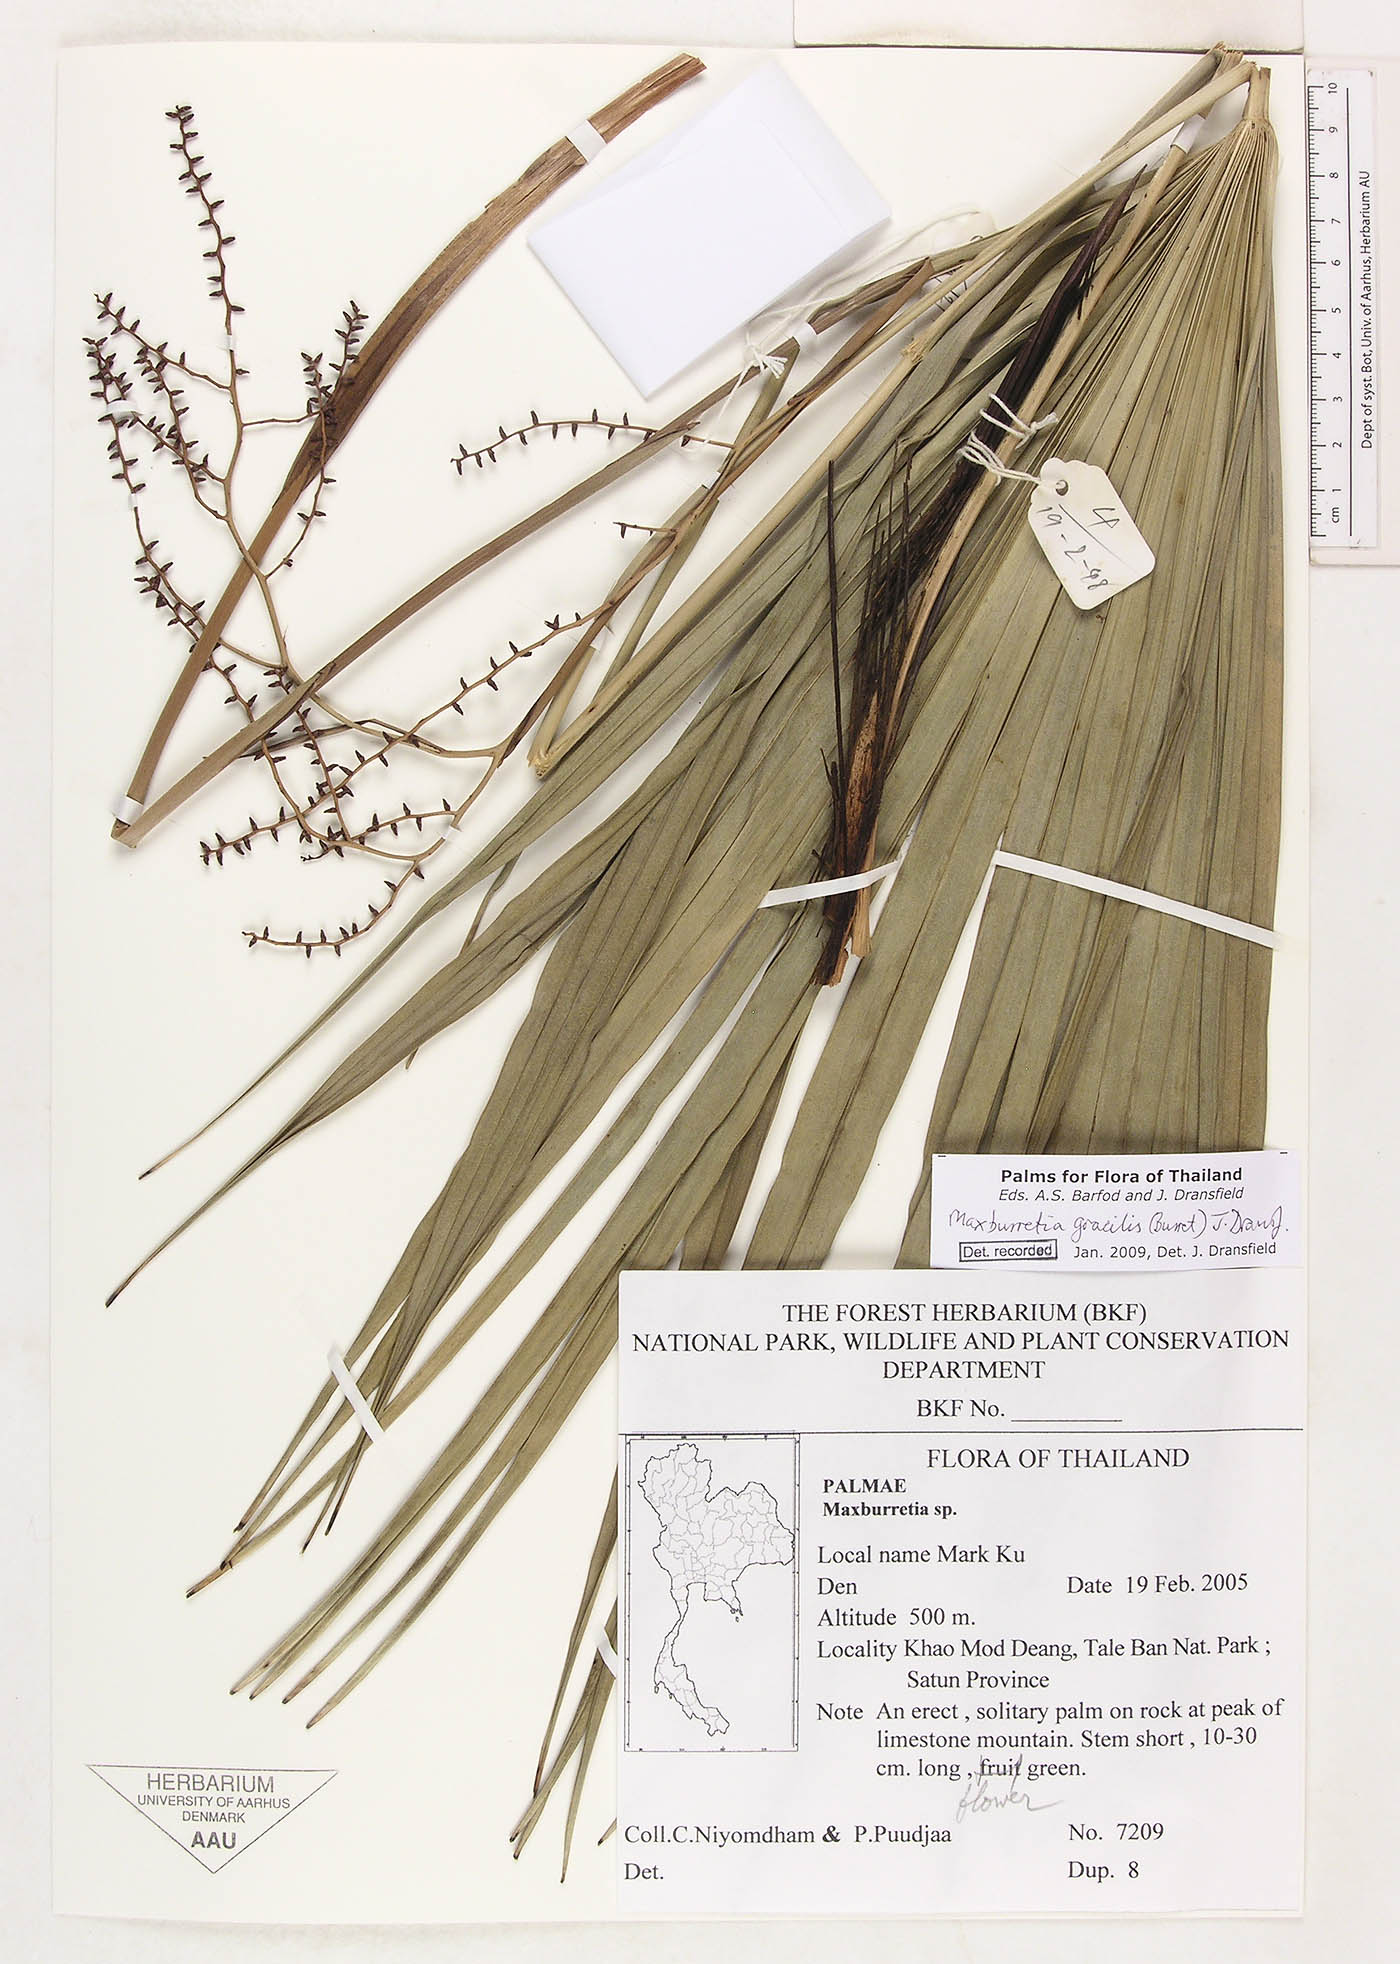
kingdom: Plantae
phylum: Tracheophyta
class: Liliopsida
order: Arecales
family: Arecaceae
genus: Maxburretia
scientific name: Maxburretia gracilis
